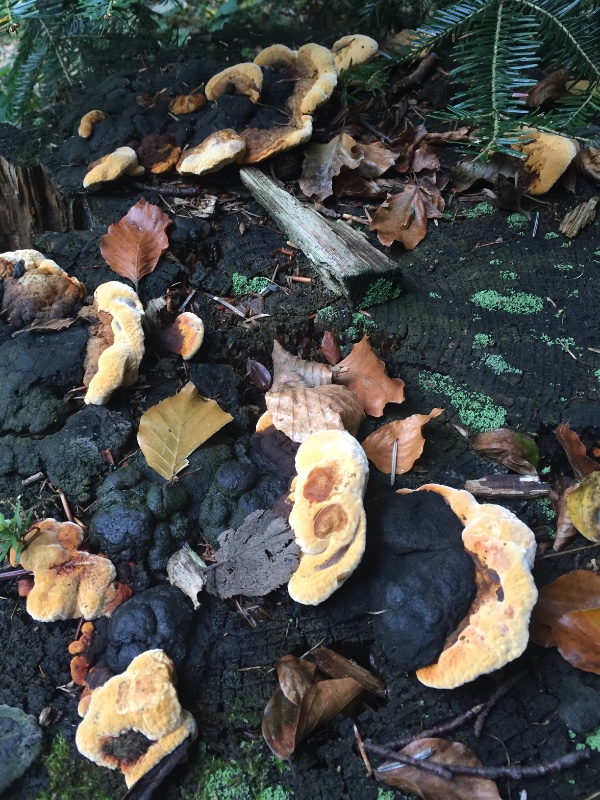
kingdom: Fungi
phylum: Basidiomycota
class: Agaricomycetes
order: Polyporales
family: Laetiporaceae
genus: Phaeolus
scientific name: Phaeolus schweinitzii
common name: brunporesvamp
